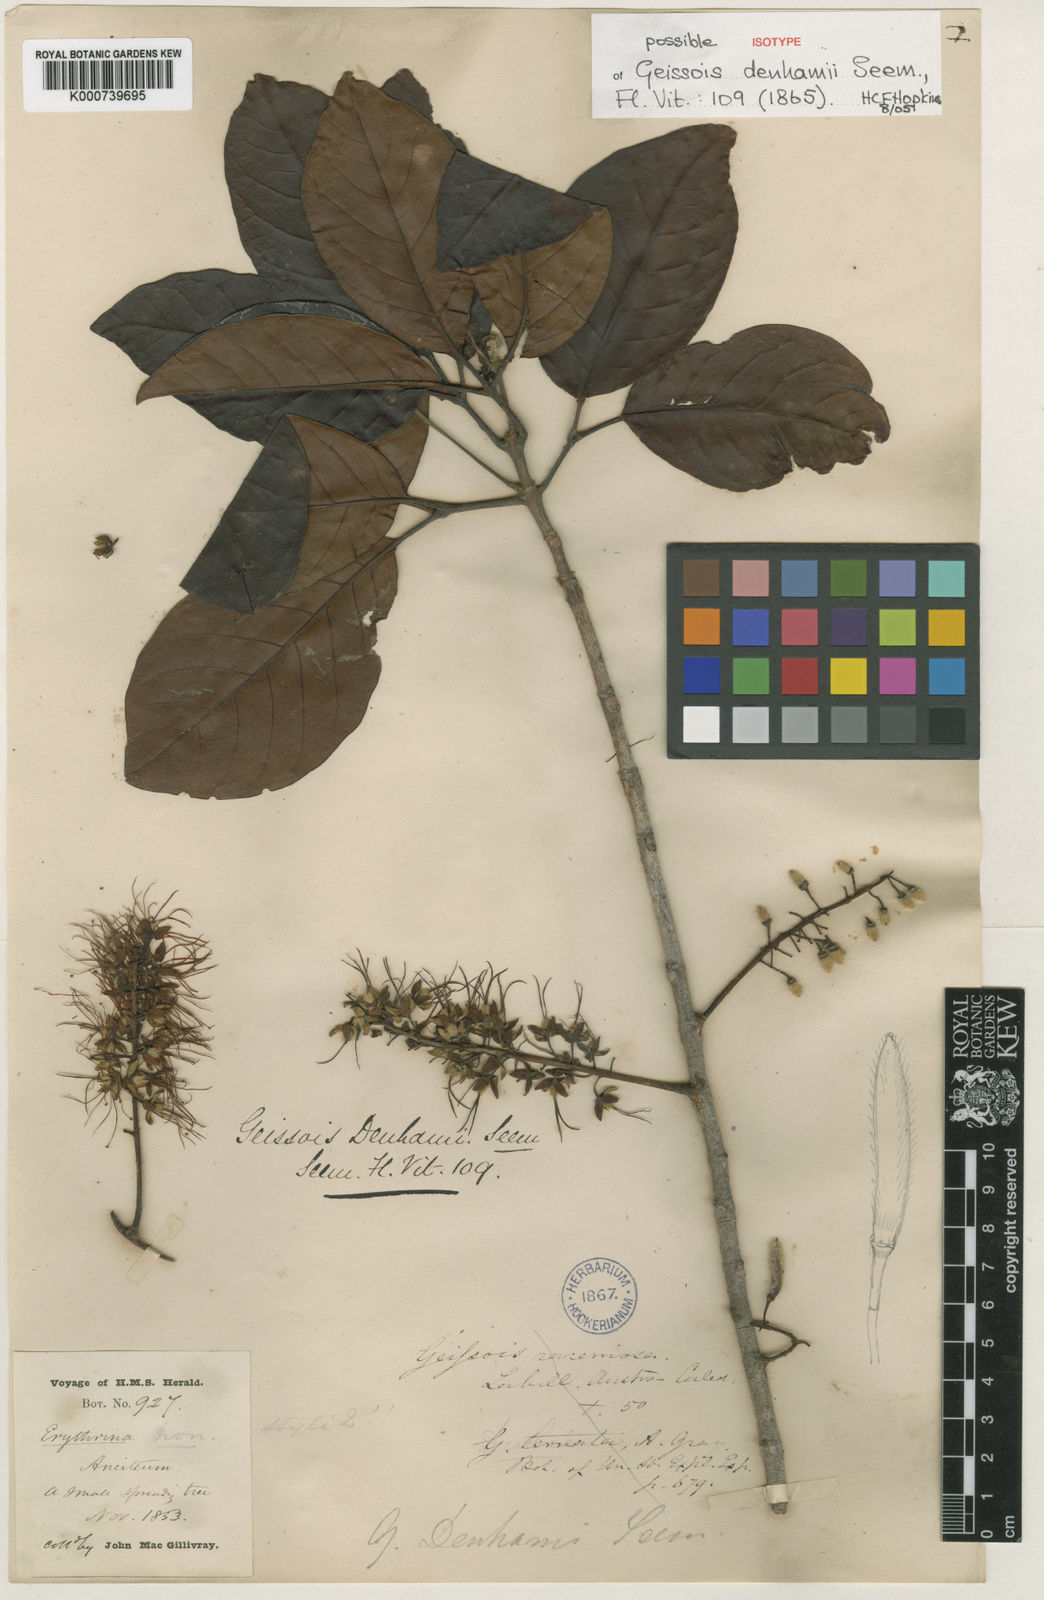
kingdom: Plantae
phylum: Tracheophyta
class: Magnoliopsida
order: Oxalidales
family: Cunoniaceae
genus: Geissois
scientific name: Geissois denhamii
